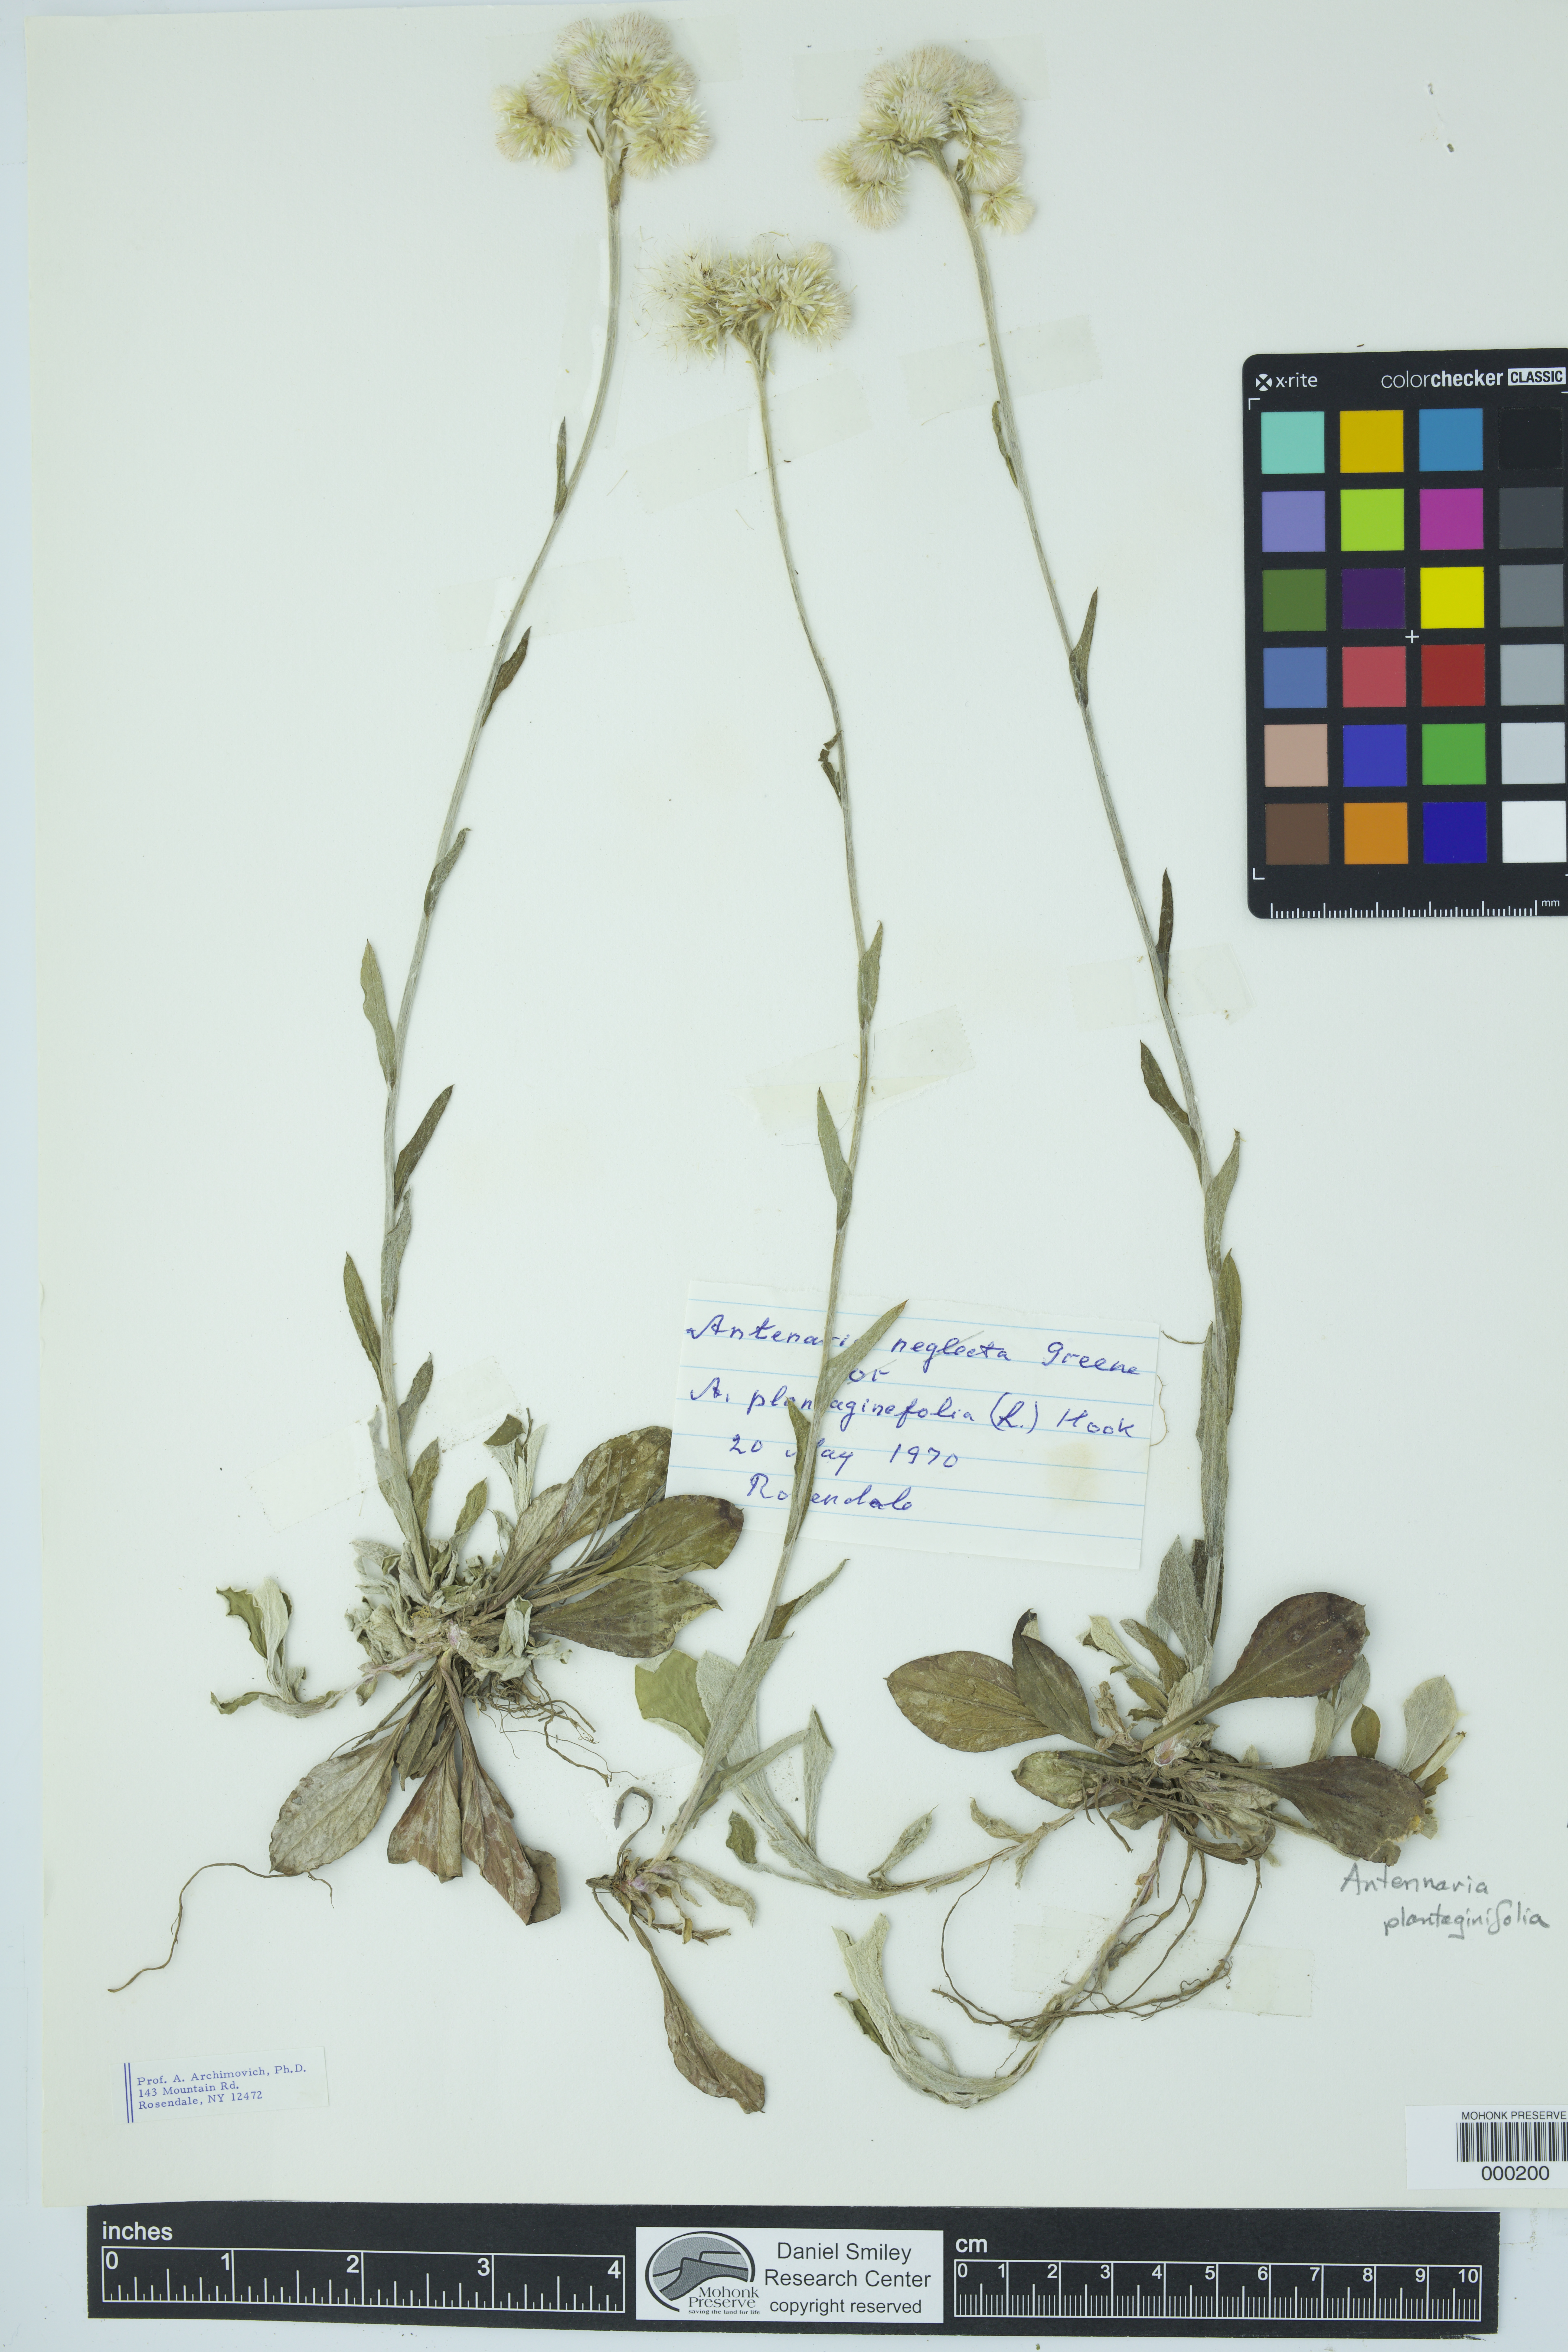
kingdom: Plantae
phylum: Tracheophyta
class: Magnoliopsida
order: Asterales
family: Asteraceae
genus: Antennaria
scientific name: Antennaria plantaginifolia
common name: Plantain-leaved pussytoes
